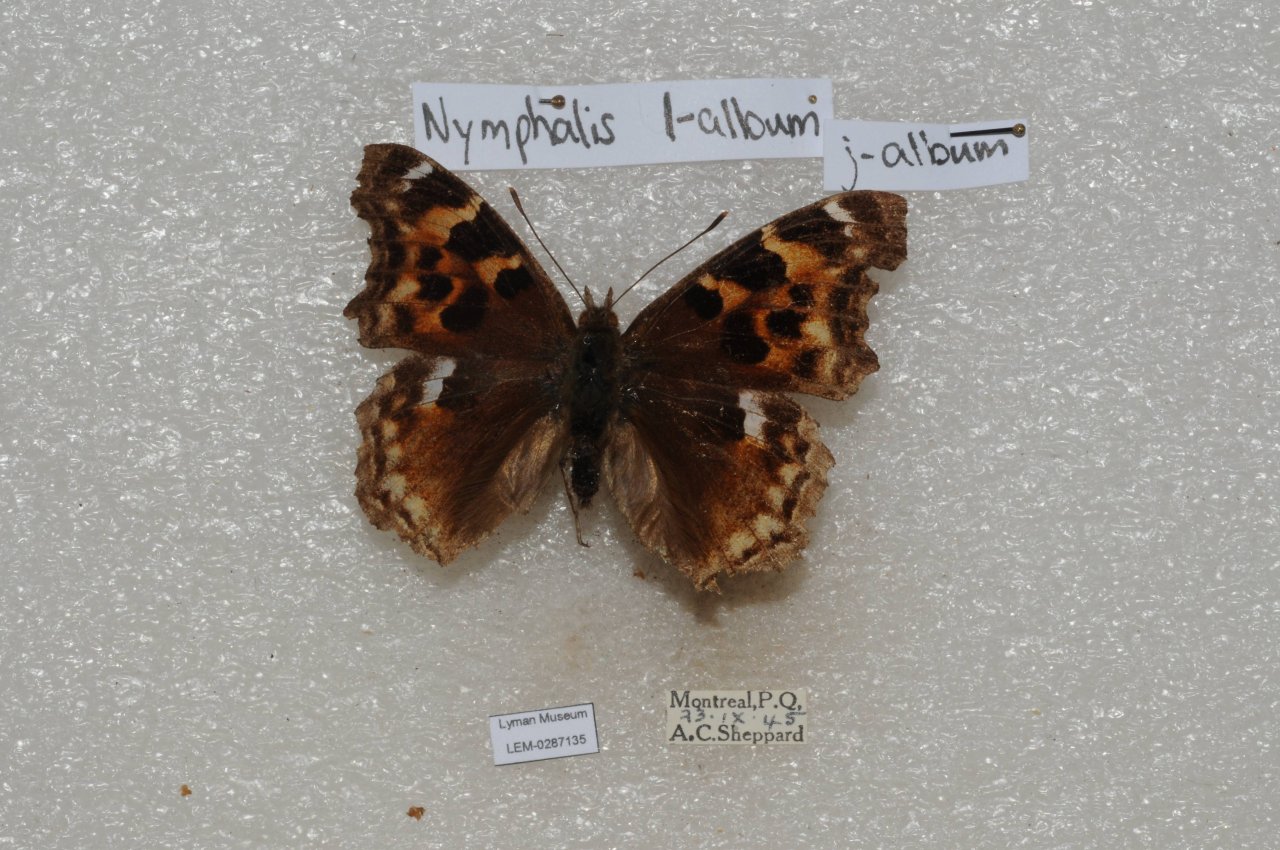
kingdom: Animalia
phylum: Arthropoda
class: Insecta
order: Lepidoptera
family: Nymphalidae
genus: Polygonia
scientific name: Polygonia vaualbum
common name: Compton Tortoiseshell
